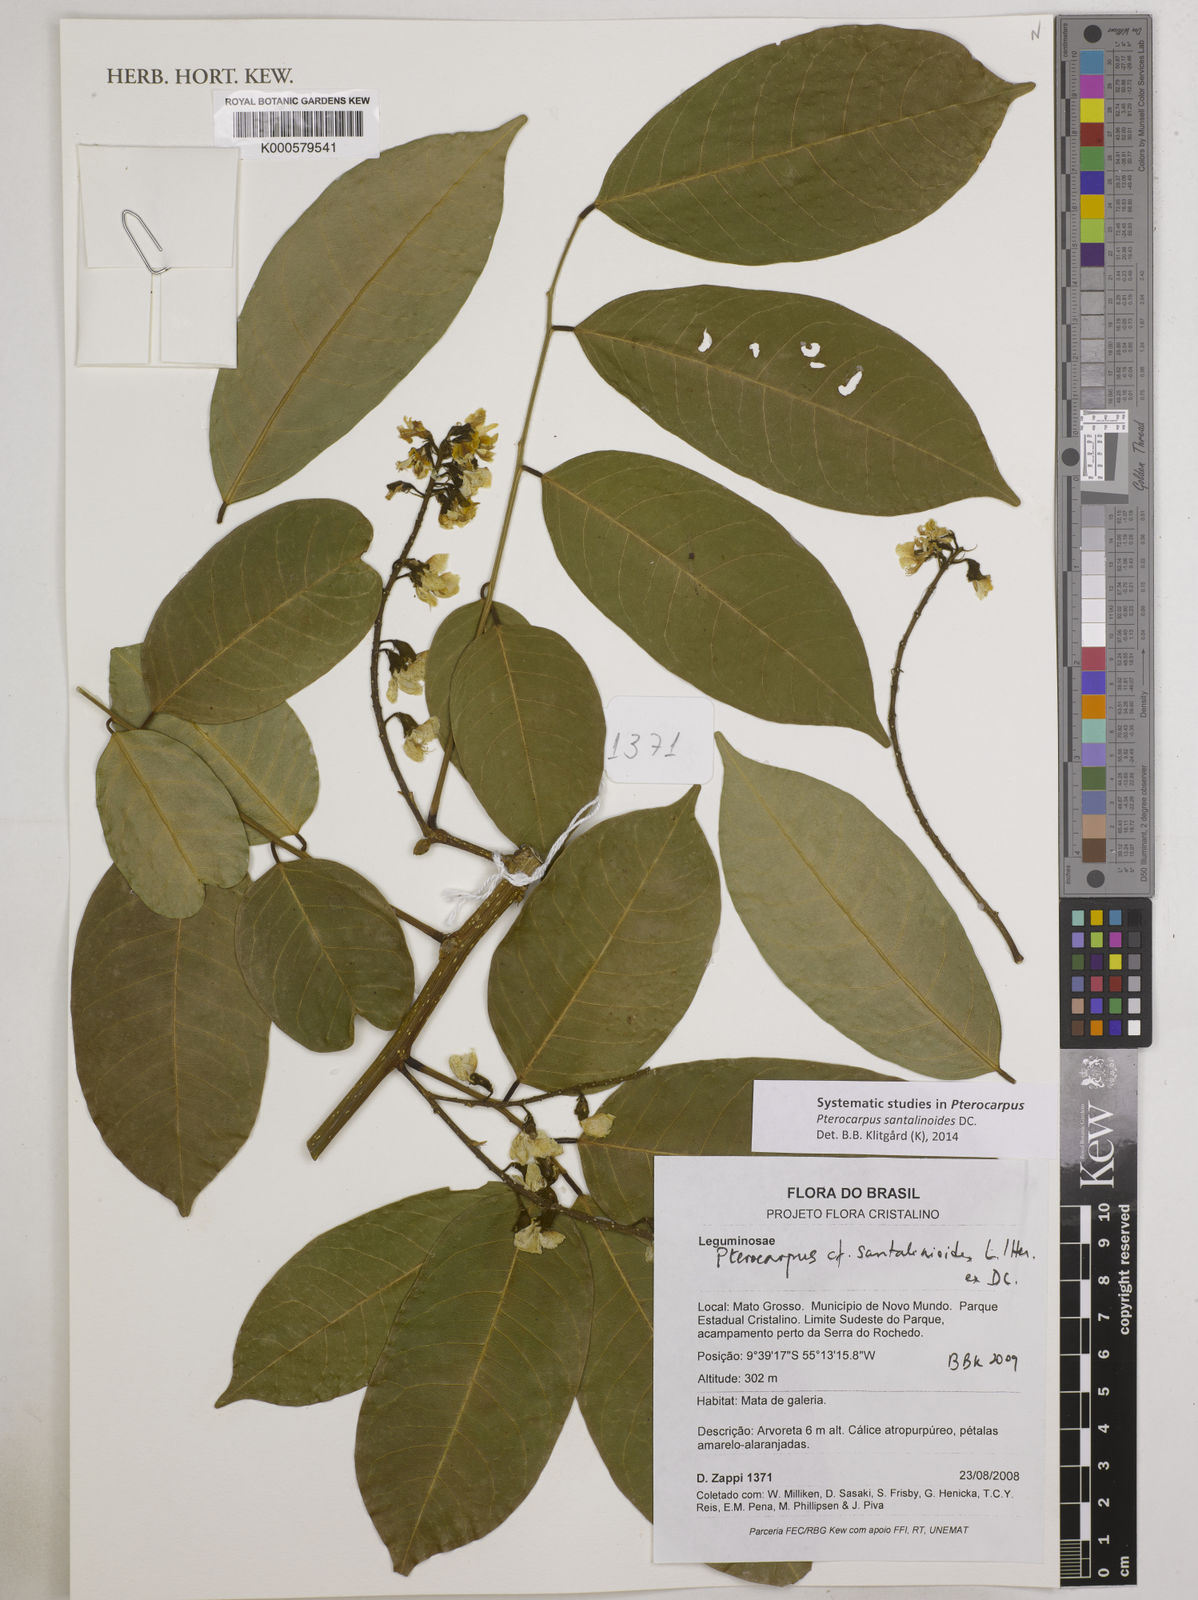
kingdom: Plantae
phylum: Tracheophyta
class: Magnoliopsida
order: Fabales
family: Fabaceae
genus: Pterocarpus
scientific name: Pterocarpus santalinoides
